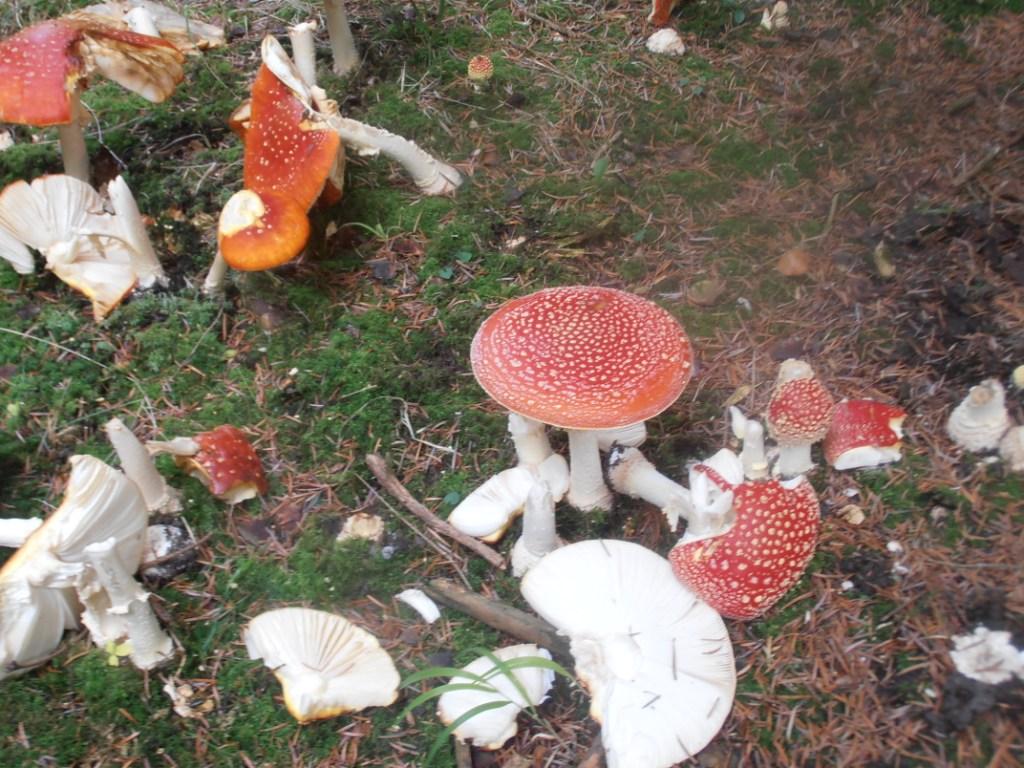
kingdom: Fungi
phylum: Basidiomycota
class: Agaricomycetes
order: Agaricales
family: Amanitaceae
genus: Amanita
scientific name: Amanita muscaria
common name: rød fluesvamp
